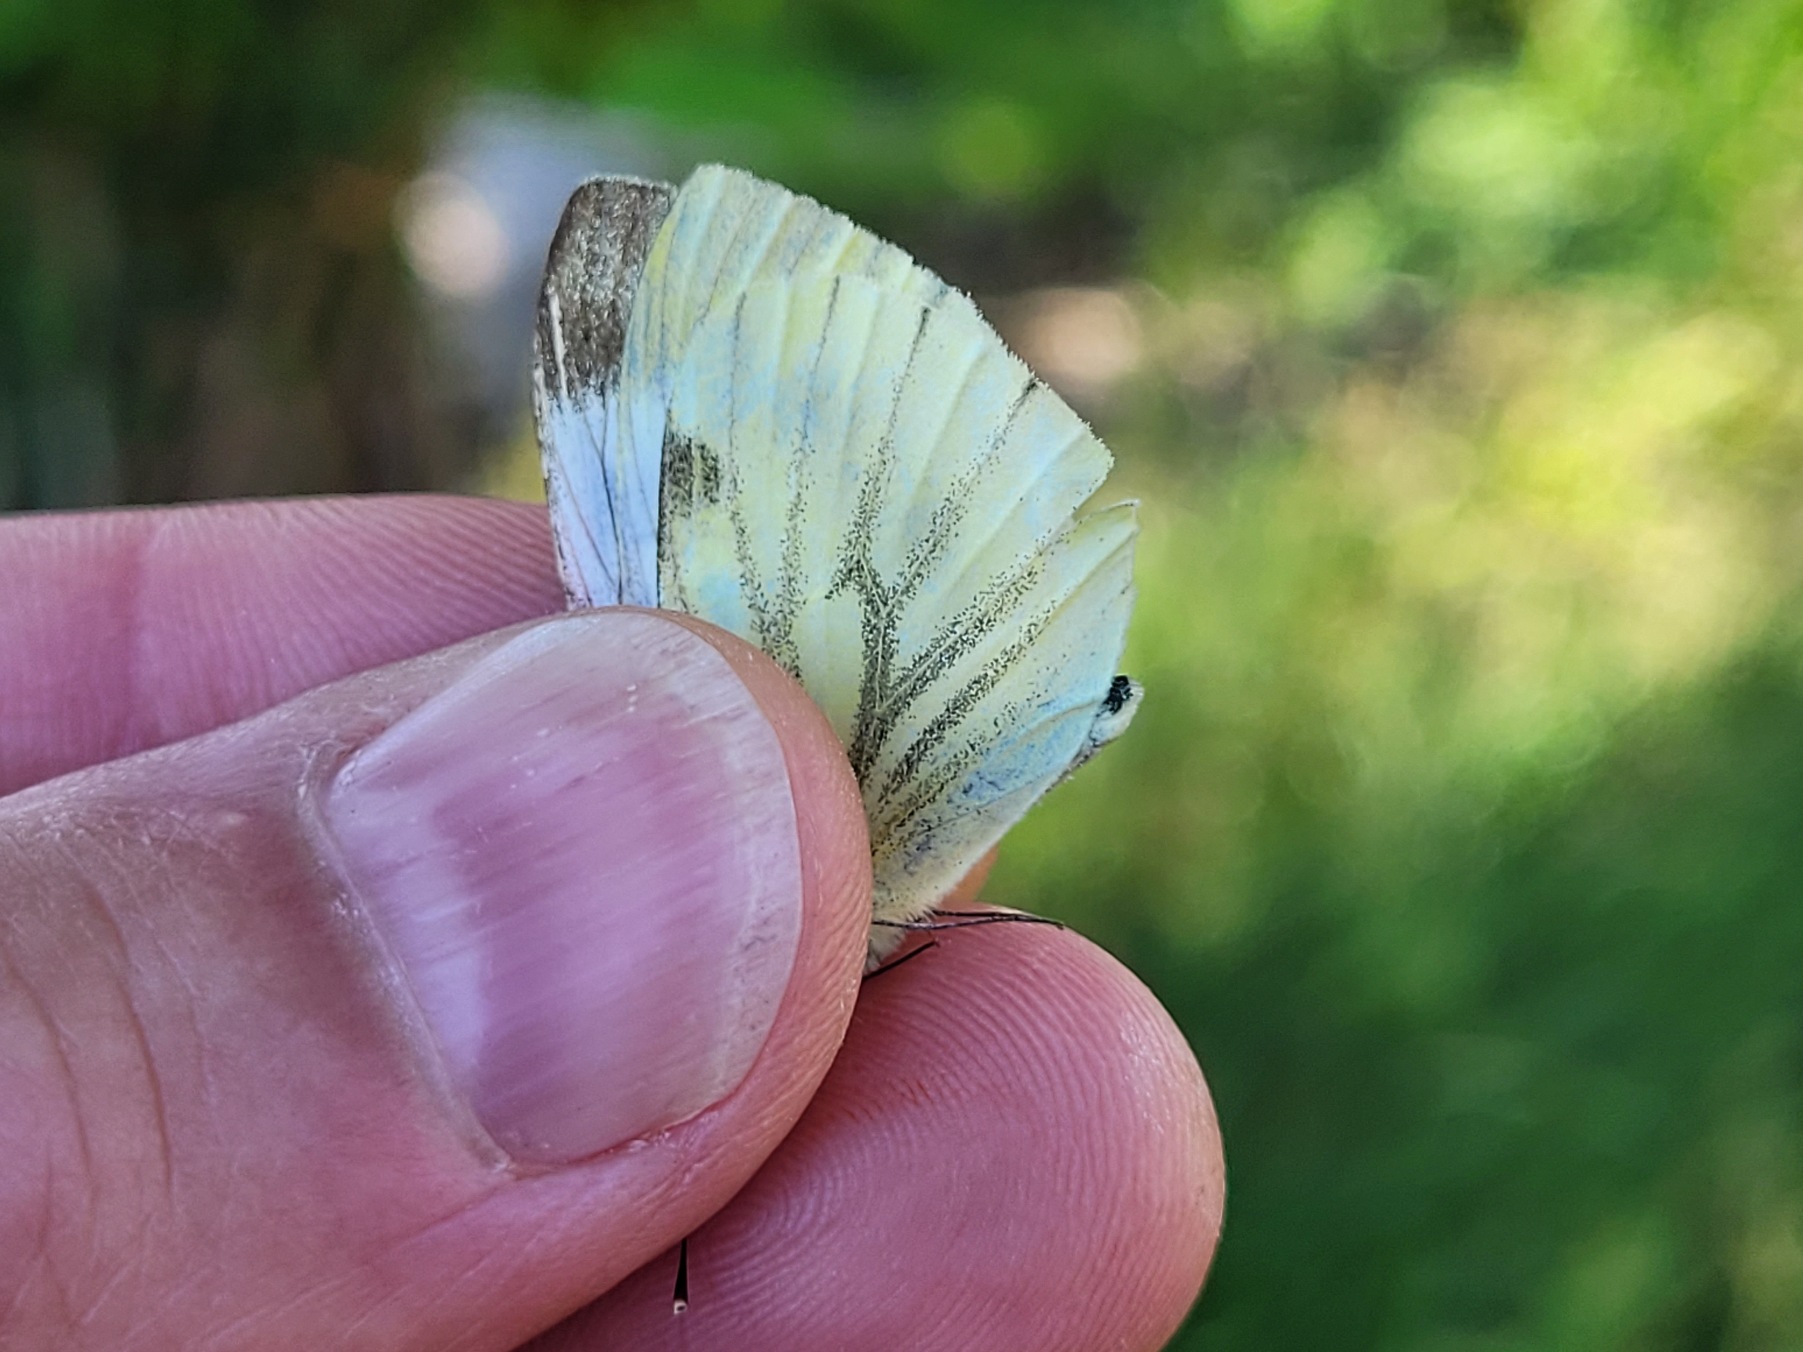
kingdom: Animalia
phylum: Arthropoda
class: Insecta
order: Lepidoptera
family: Pieridae
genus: Pieris
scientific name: Pieris napi
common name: Grønåret kålsommerfugl
